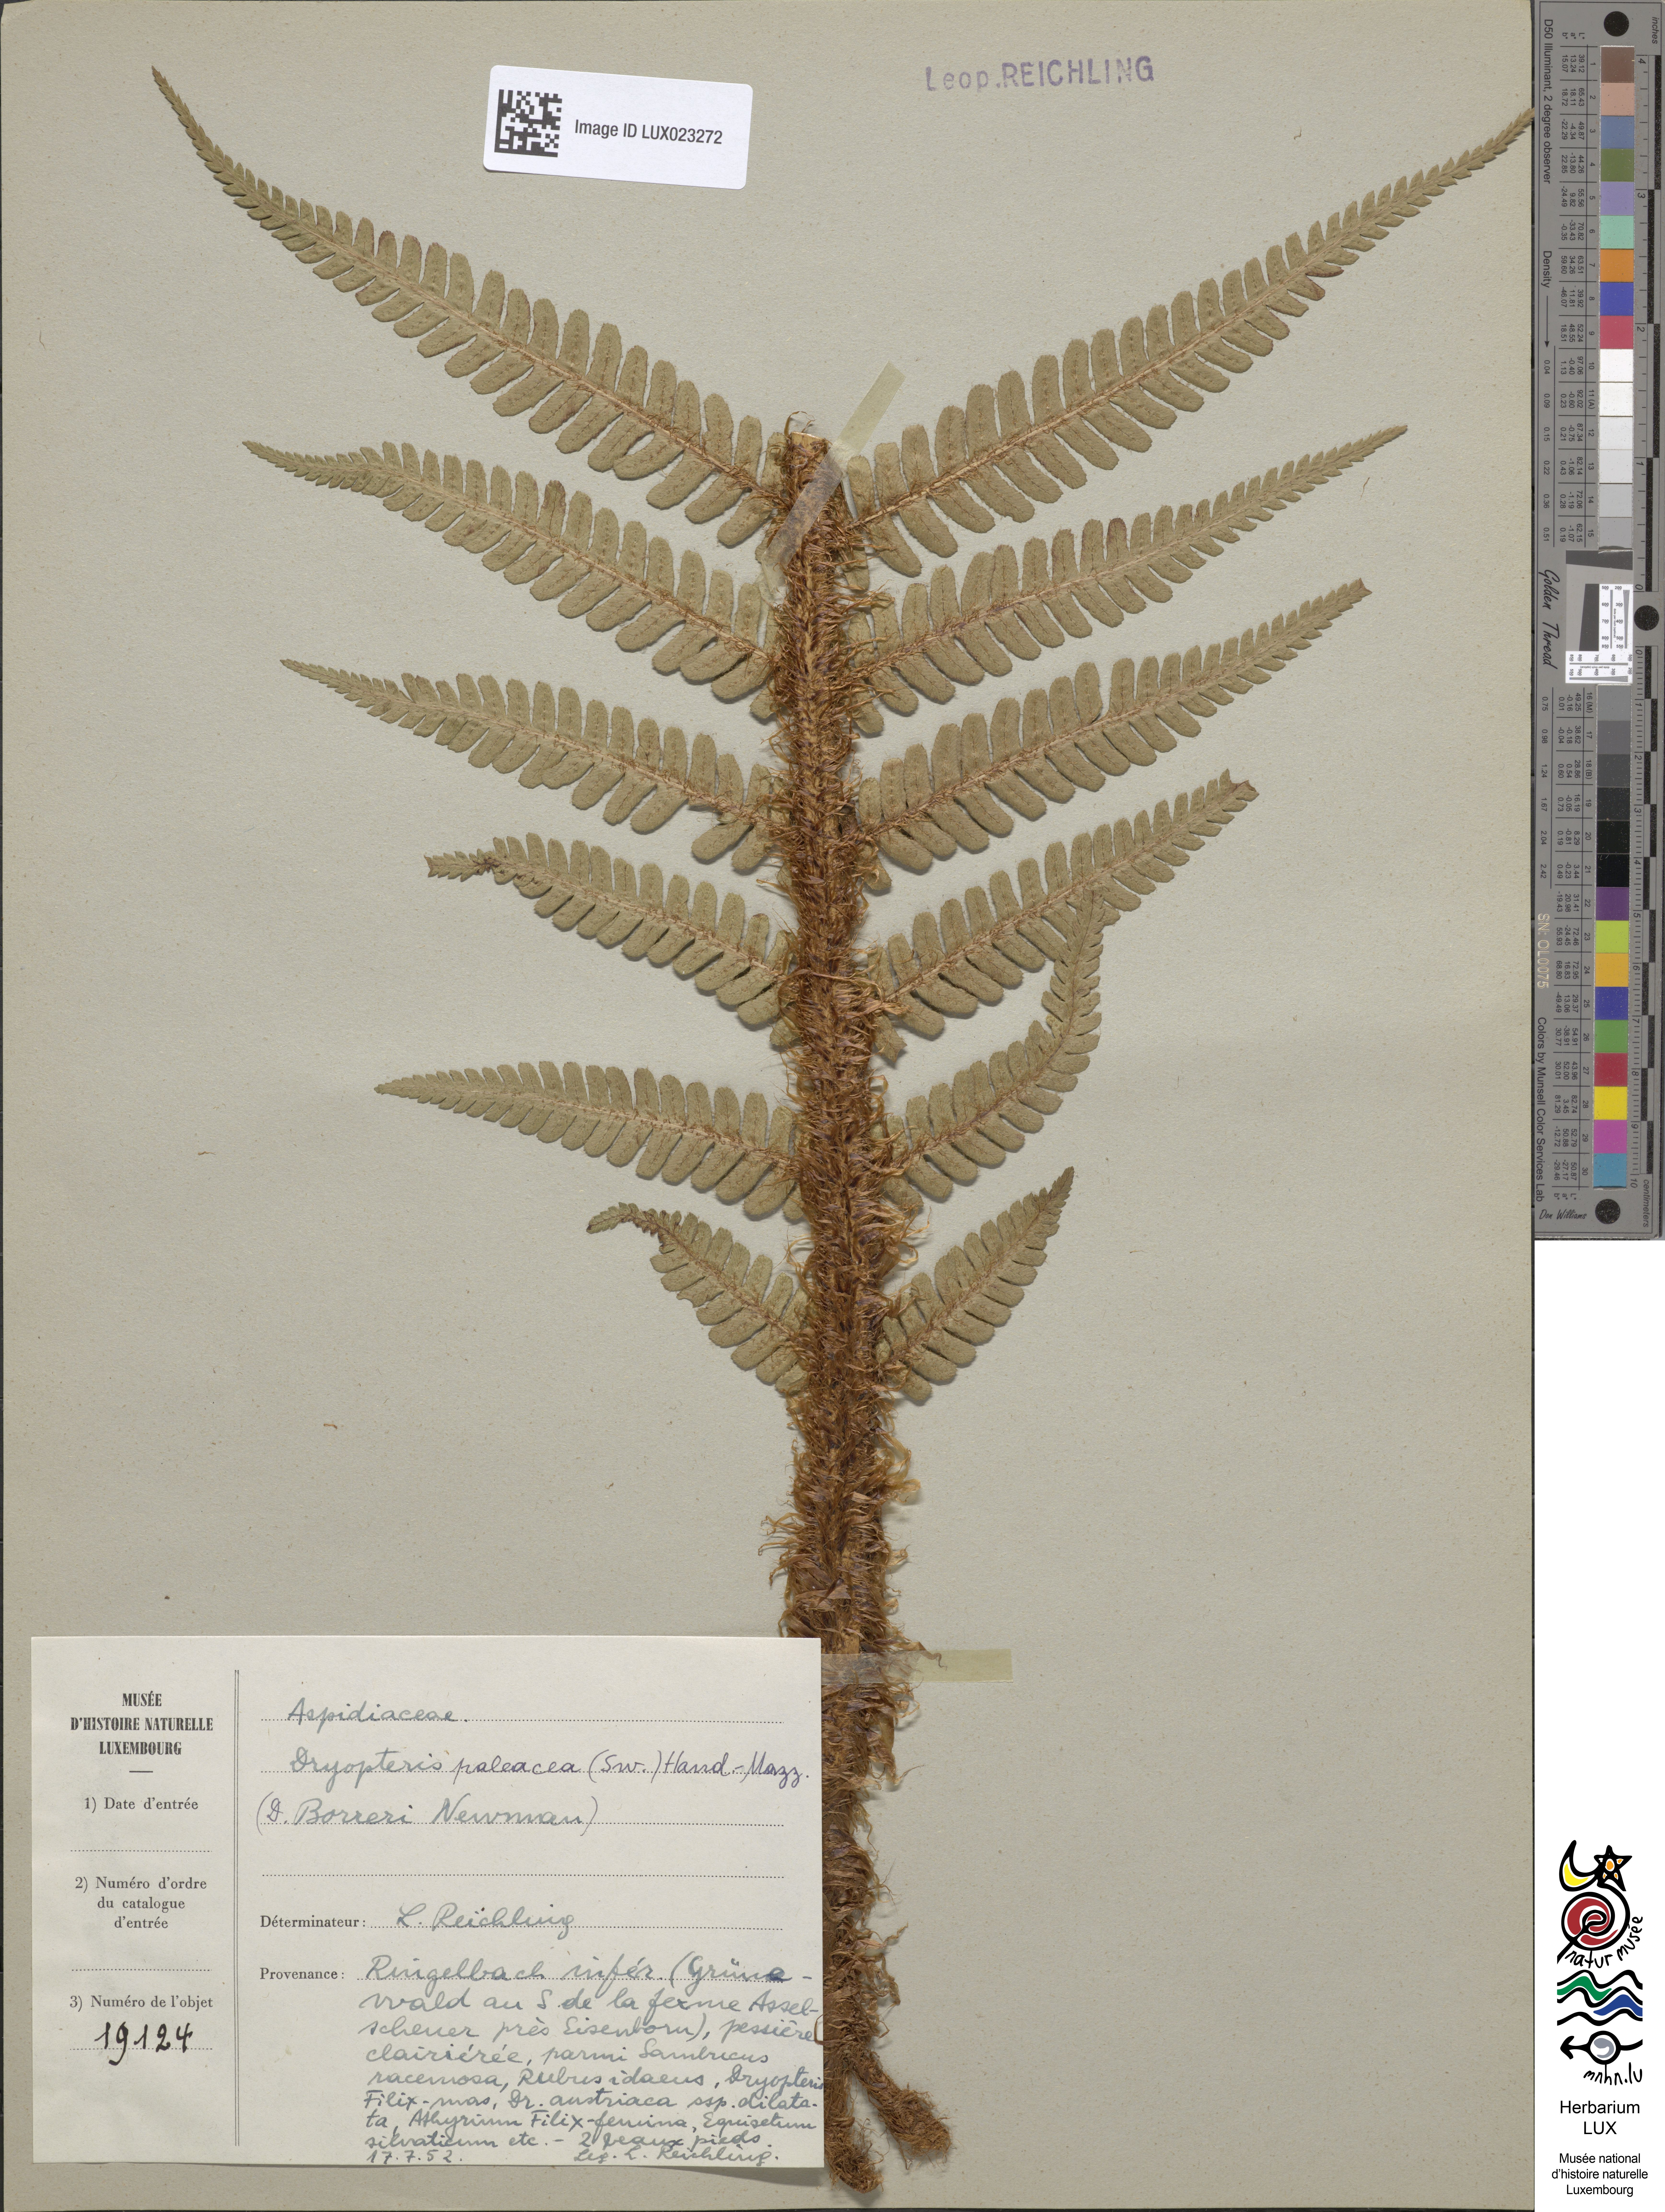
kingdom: Plantae
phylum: Tracheophyta
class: Polypodiopsida
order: Polypodiales
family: Dryopteridaceae
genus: Dryopteris
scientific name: Dryopteris
